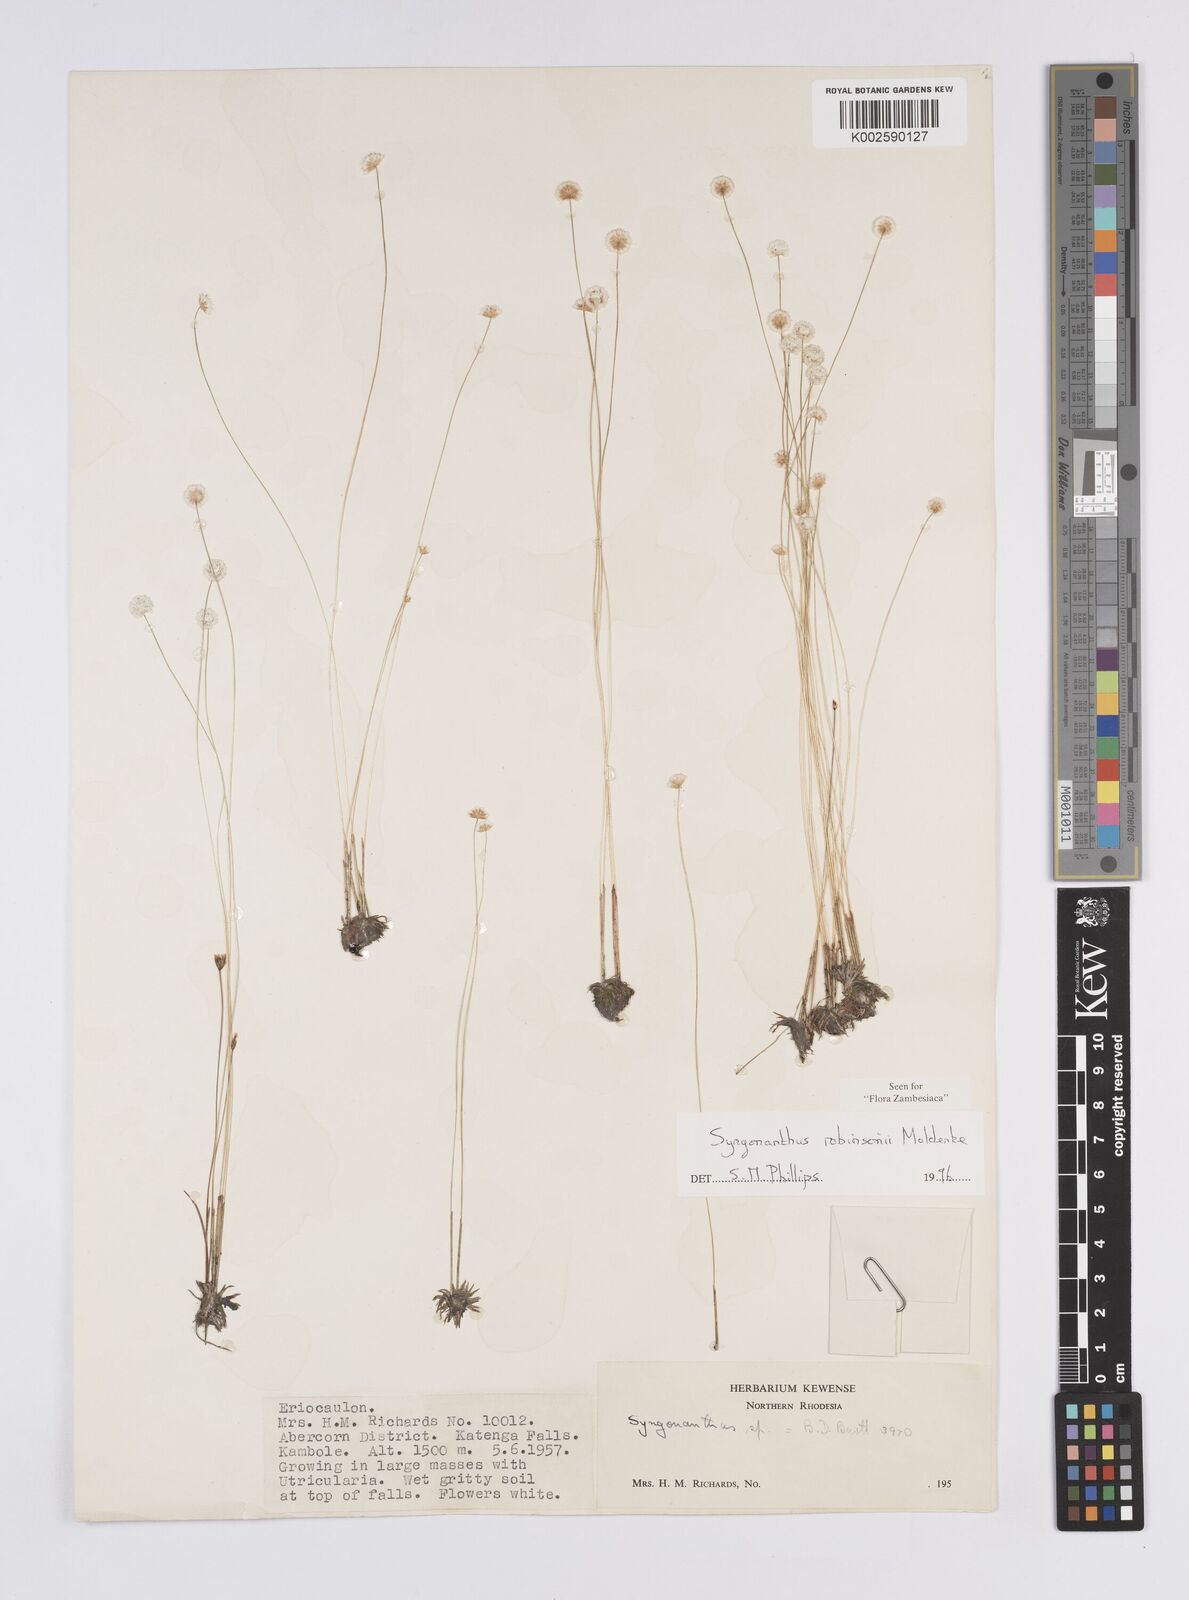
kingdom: Plantae
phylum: Tracheophyta
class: Liliopsida
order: Poales
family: Eriocaulaceae
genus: Syngonanthus
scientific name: Syngonanthus robinsonii
